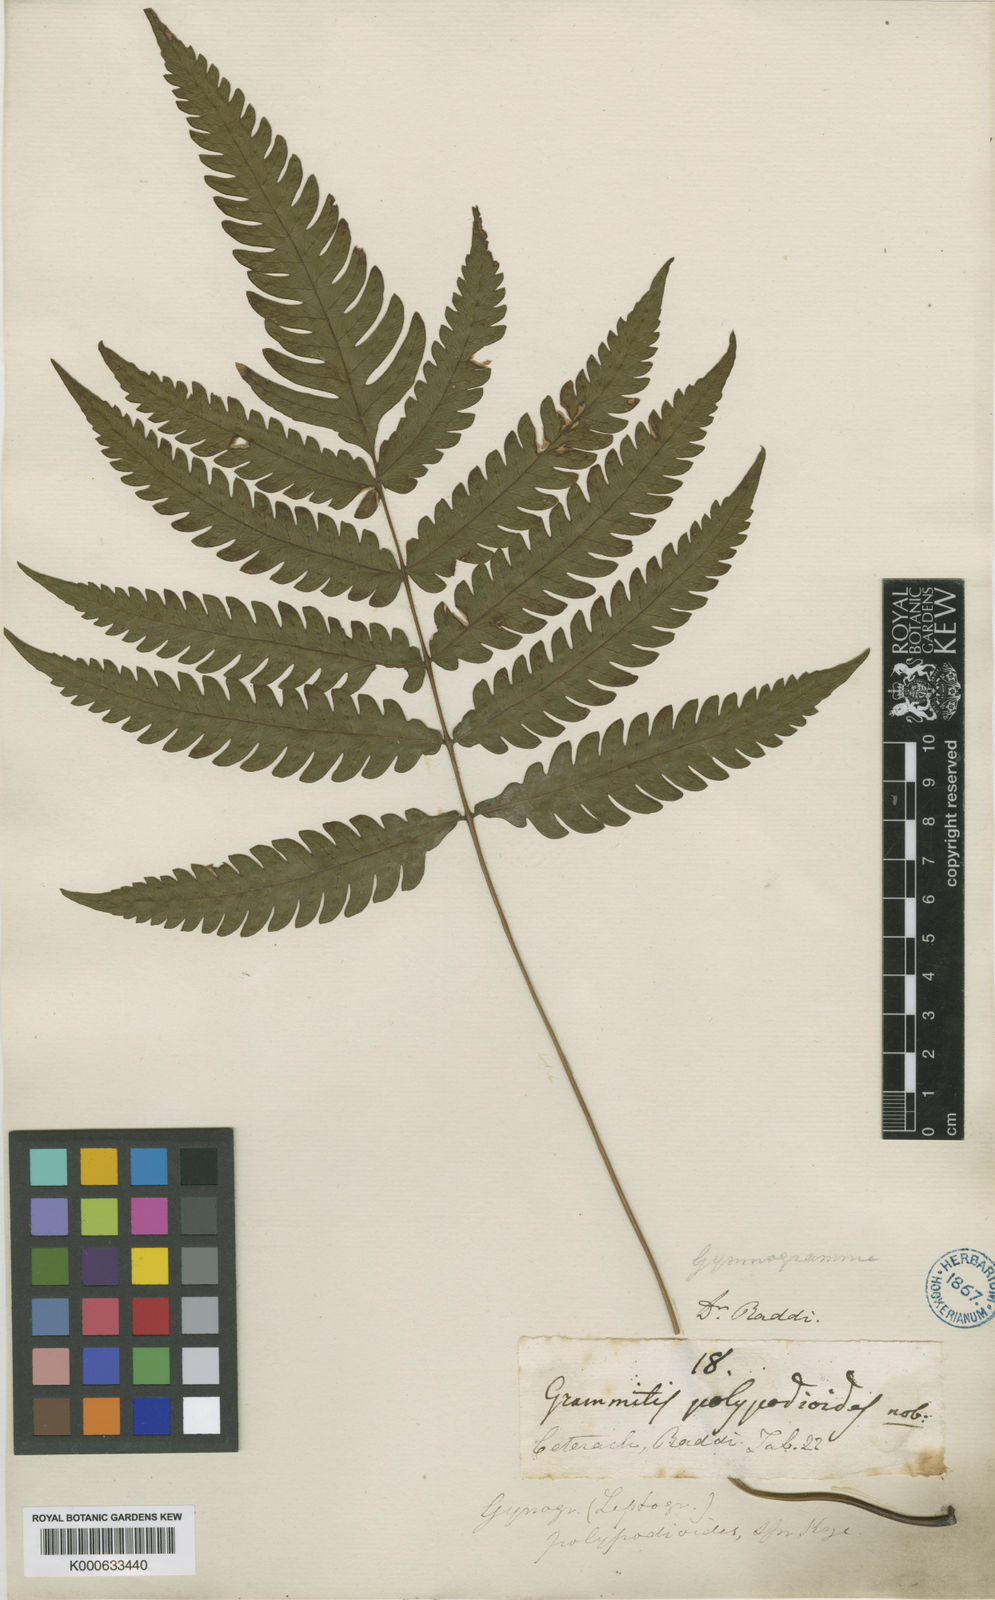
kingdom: Plantae
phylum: Tracheophyta
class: Polypodiopsida
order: Polypodiales
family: Thelypteridaceae
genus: Stegnogramma
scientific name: Stegnogramma
